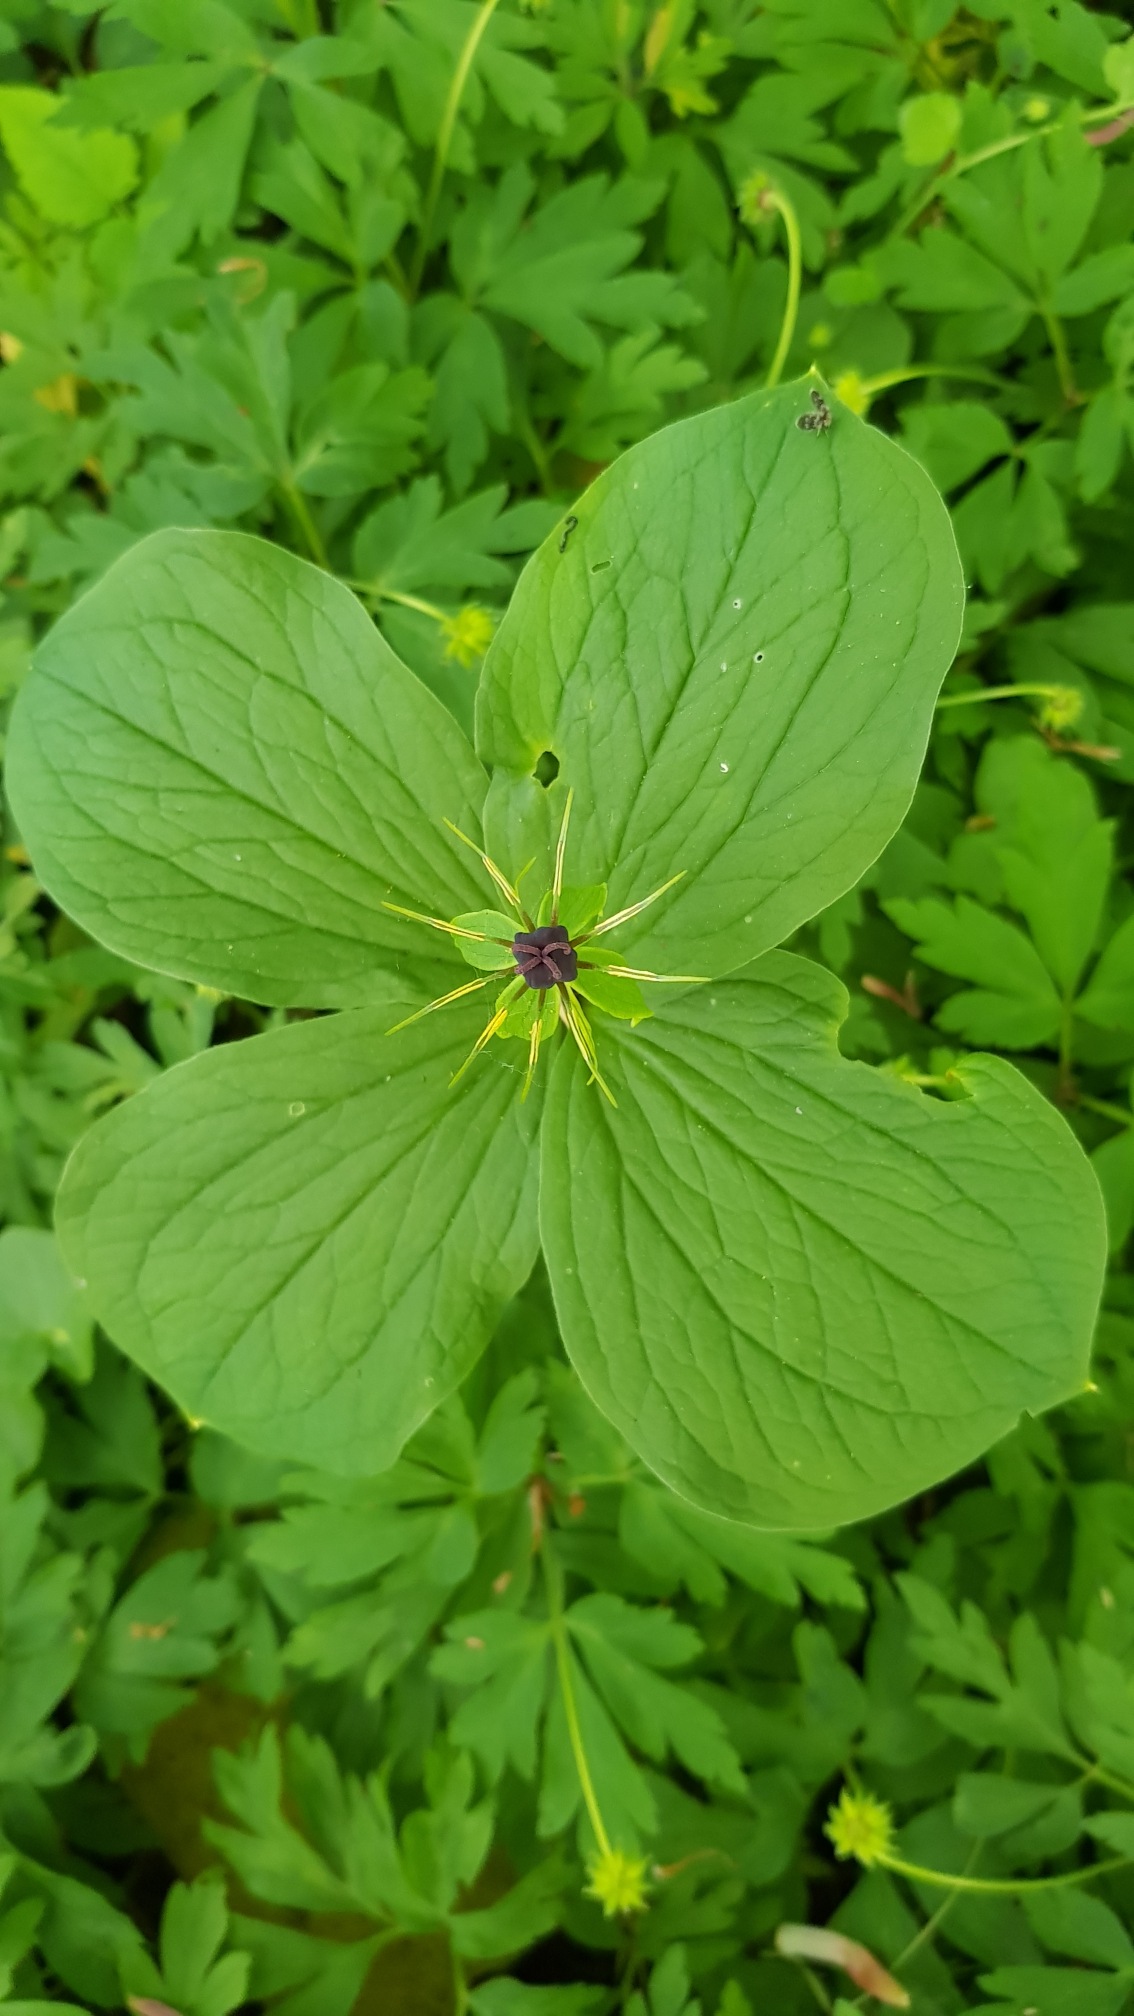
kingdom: Plantae
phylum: Tracheophyta
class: Liliopsida
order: Liliales
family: Melanthiaceae
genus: Paris
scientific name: Paris quadrifolia
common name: Firblad
